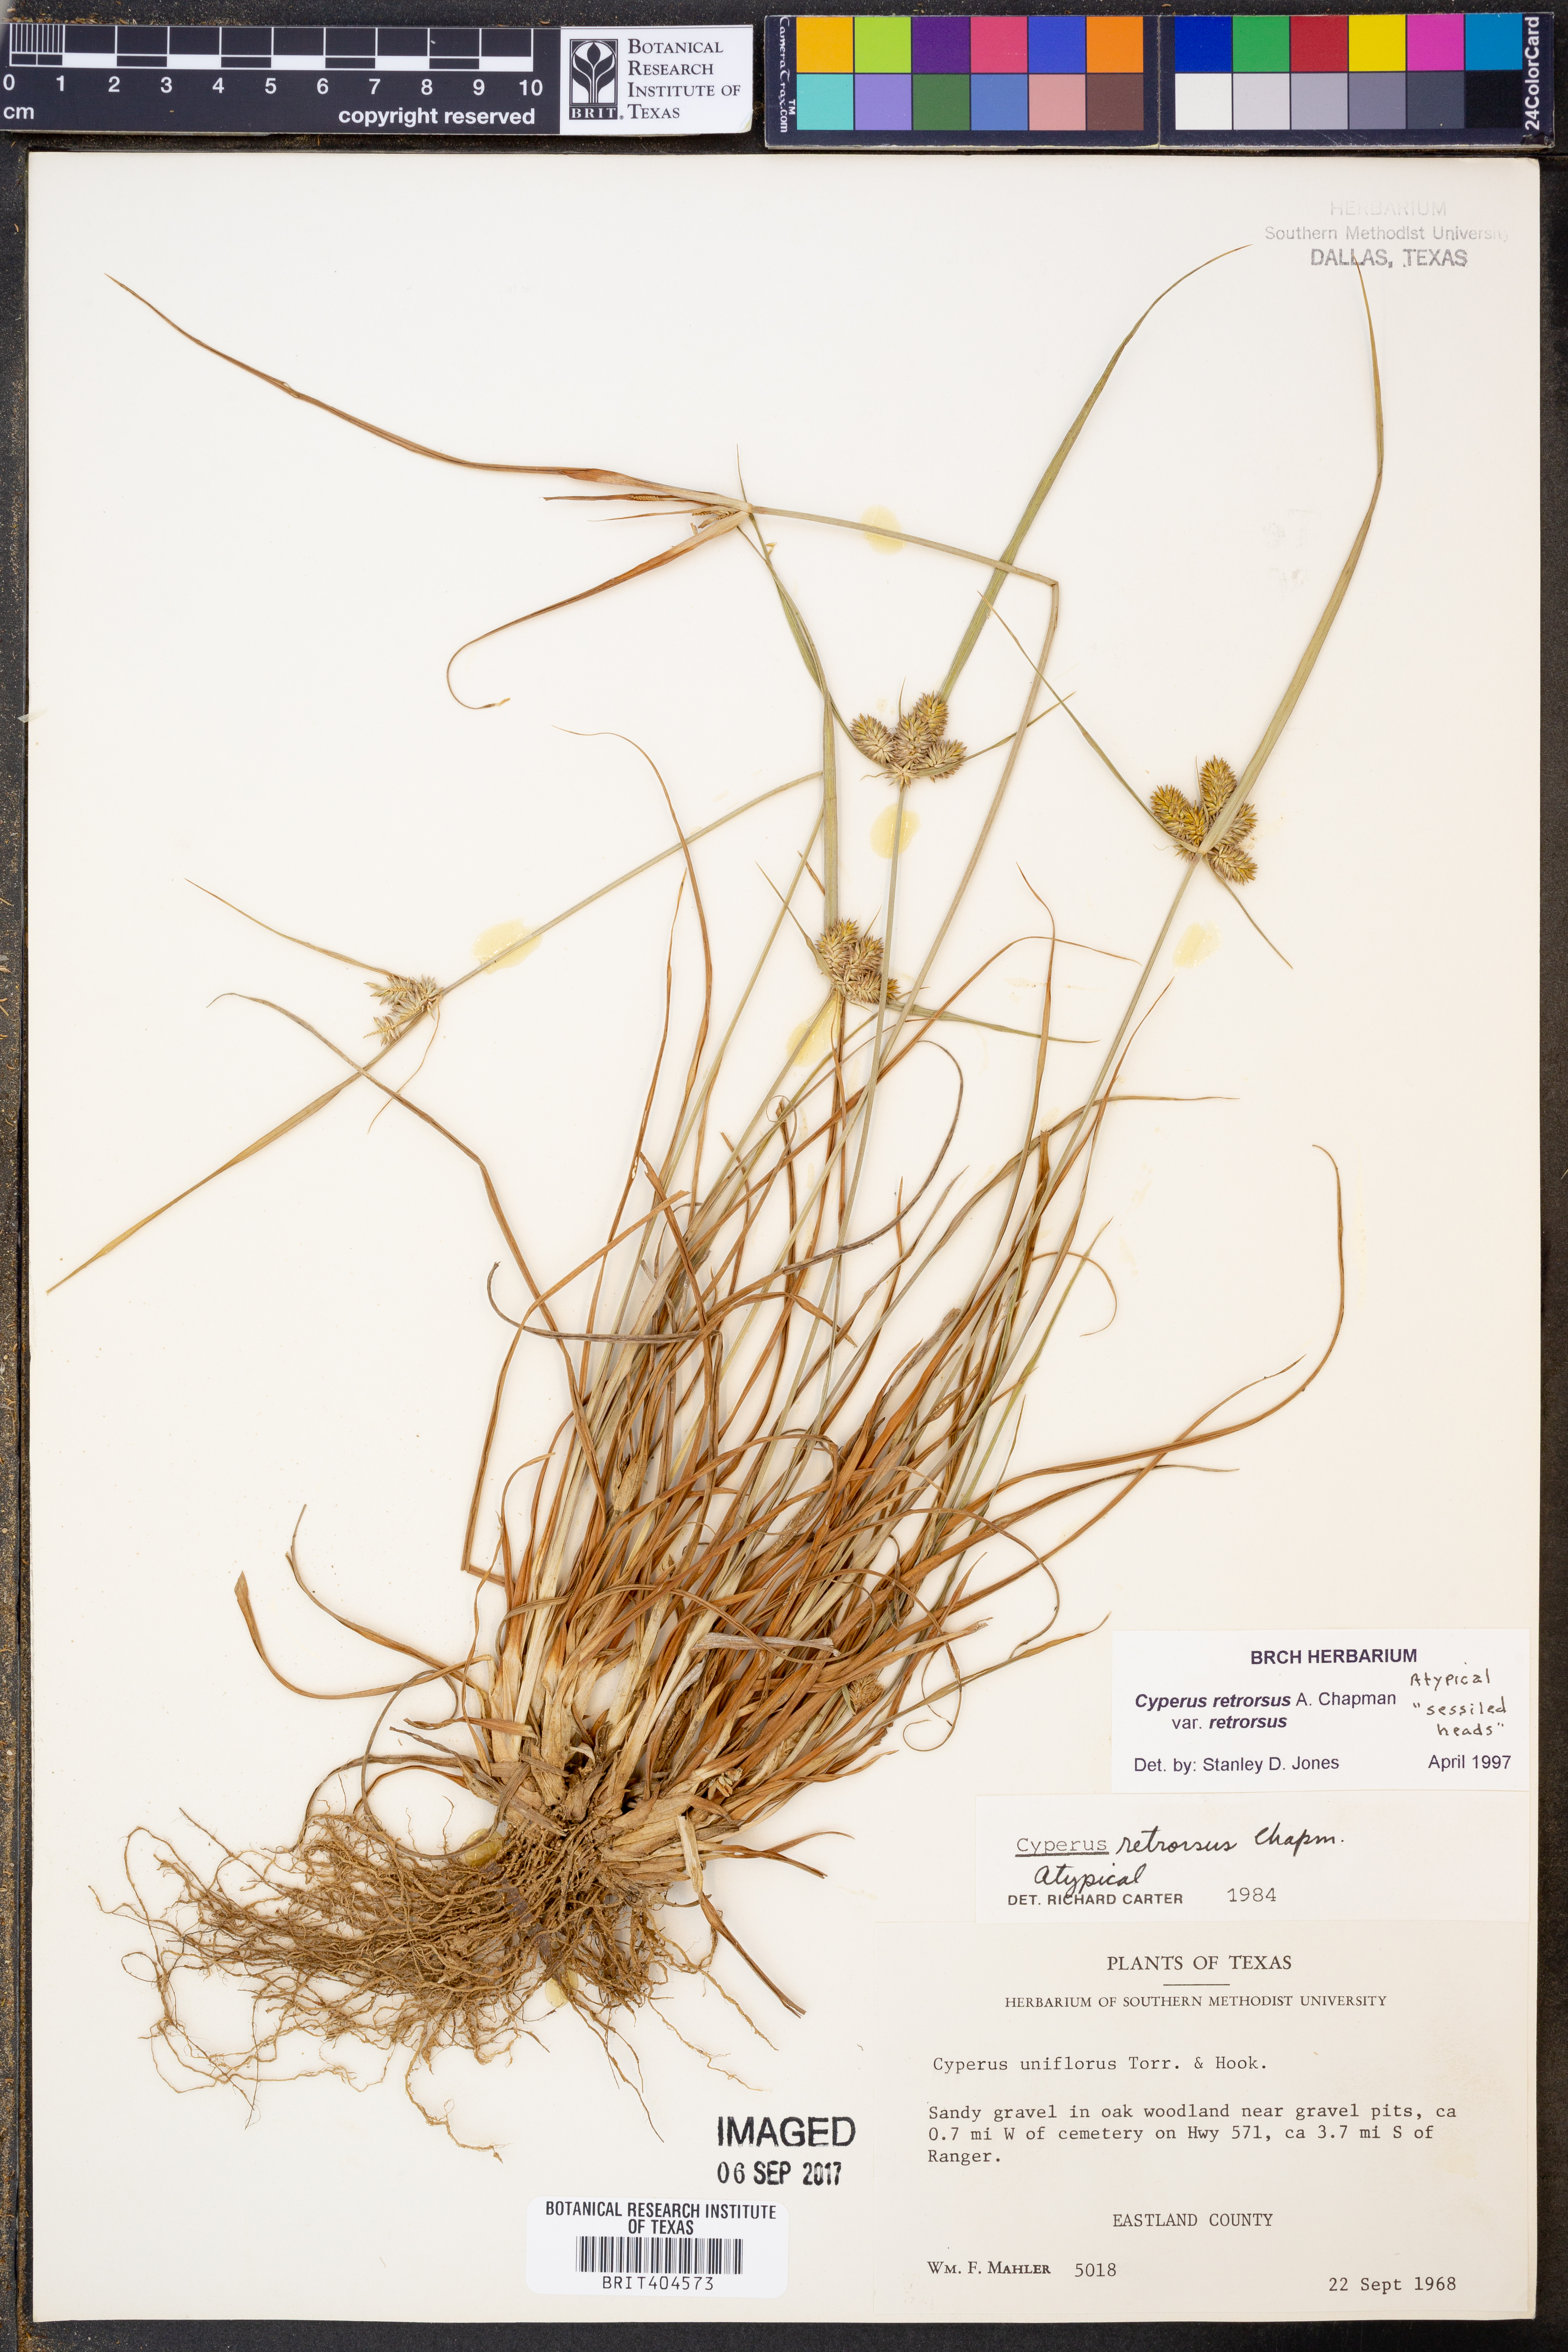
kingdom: Plantae
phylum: Tracheophyta
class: Liliopsida
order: Poales
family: Cyperaceae
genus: Cyperus
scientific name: Cyperus retrorsus
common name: Pinebarren flat sedge
